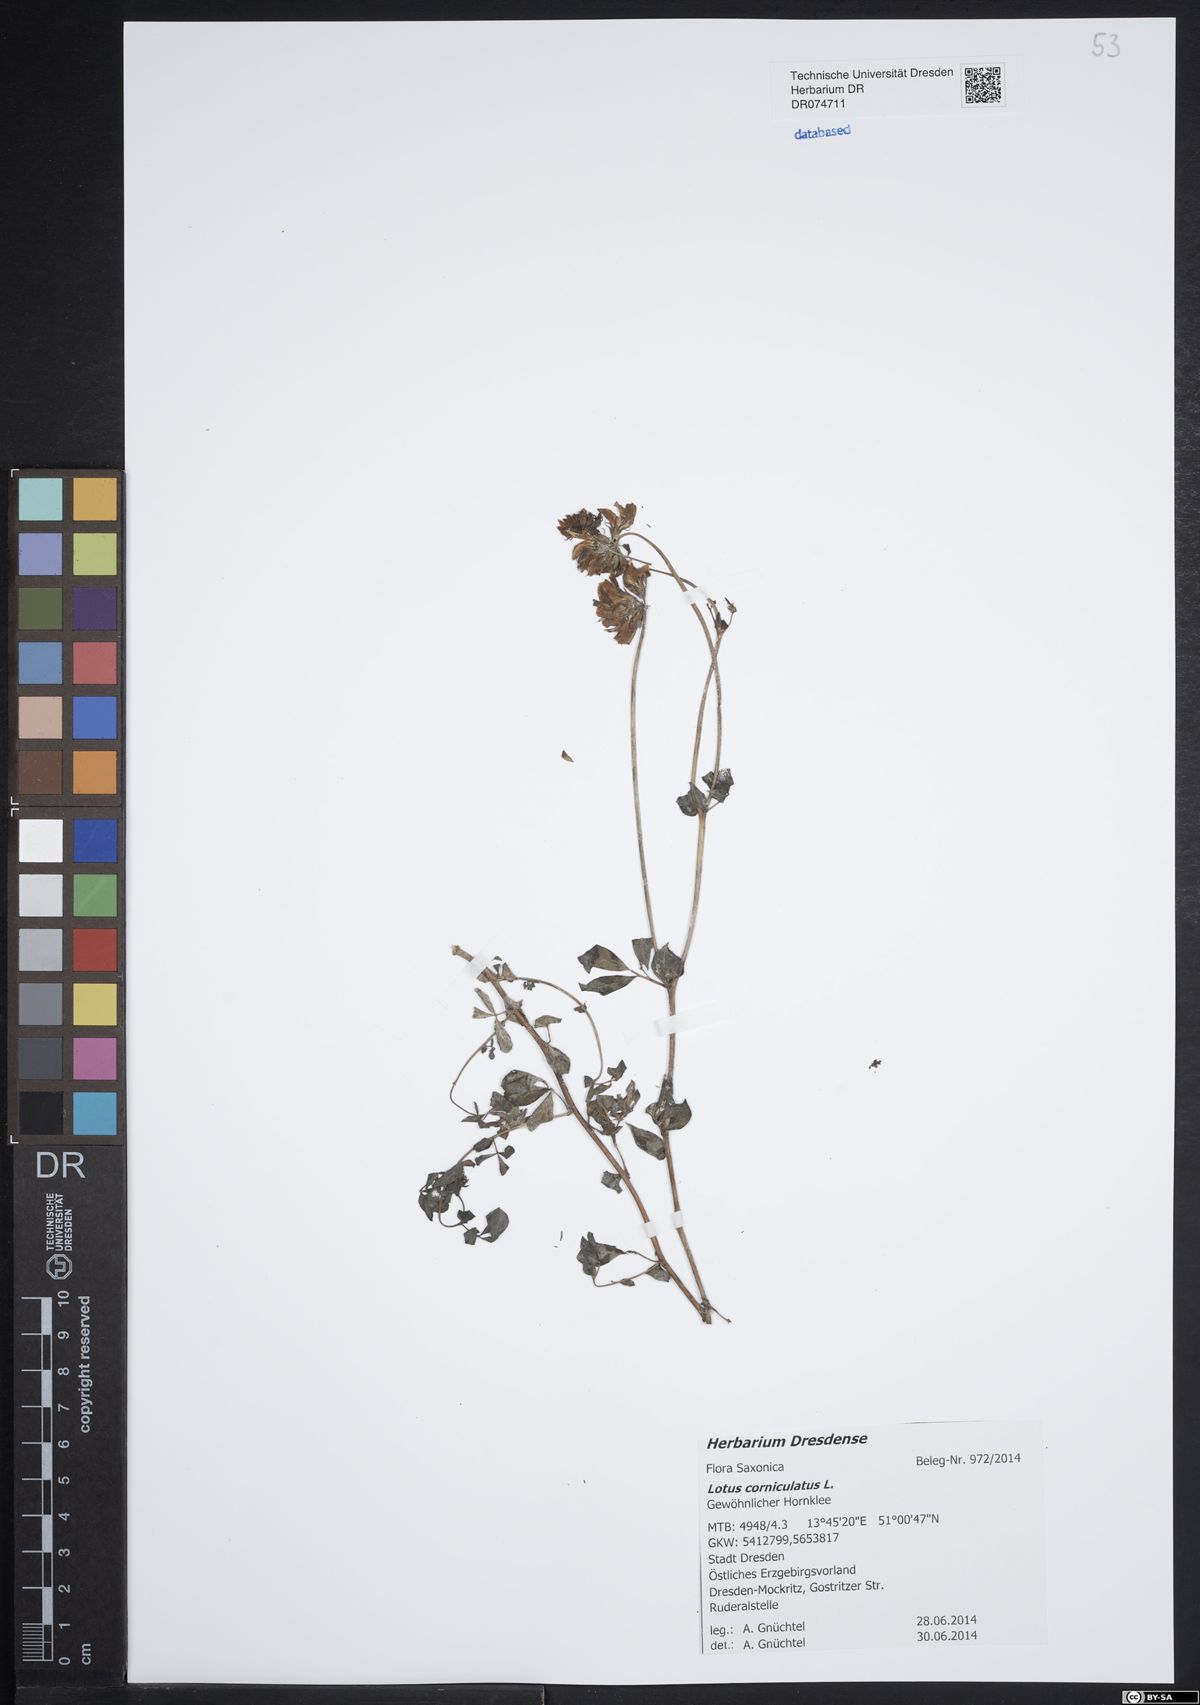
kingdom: Plantae
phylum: Tracheophyta
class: Magnoliopsida
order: Fabales
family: Fabaceae
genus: Lotus
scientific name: Lotus corniculatus
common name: Common bird's-foot-trefoil
